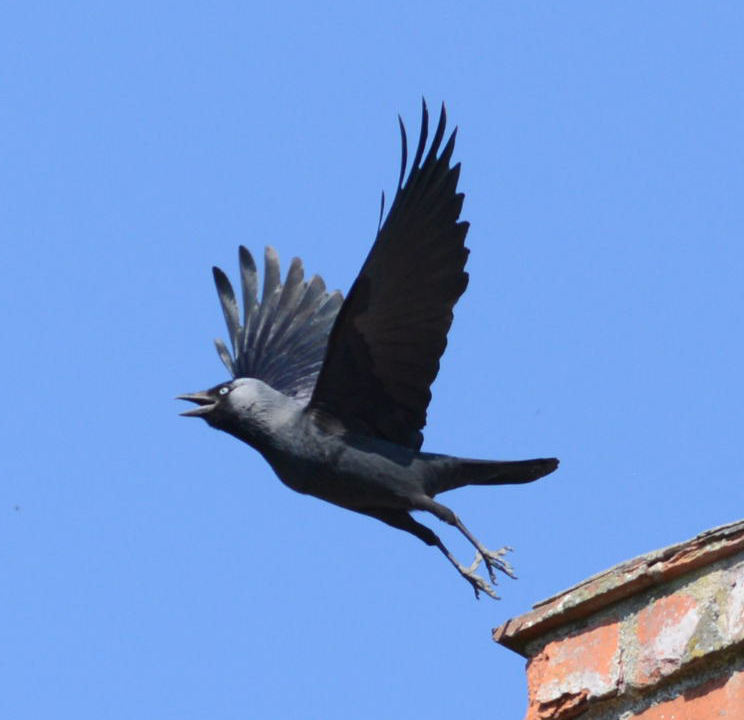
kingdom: Animalia
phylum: Chordata
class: Aves
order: Passeriformes
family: Corvidae
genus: Coloeus
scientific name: Coloeus monedula
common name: Western jackdaw
